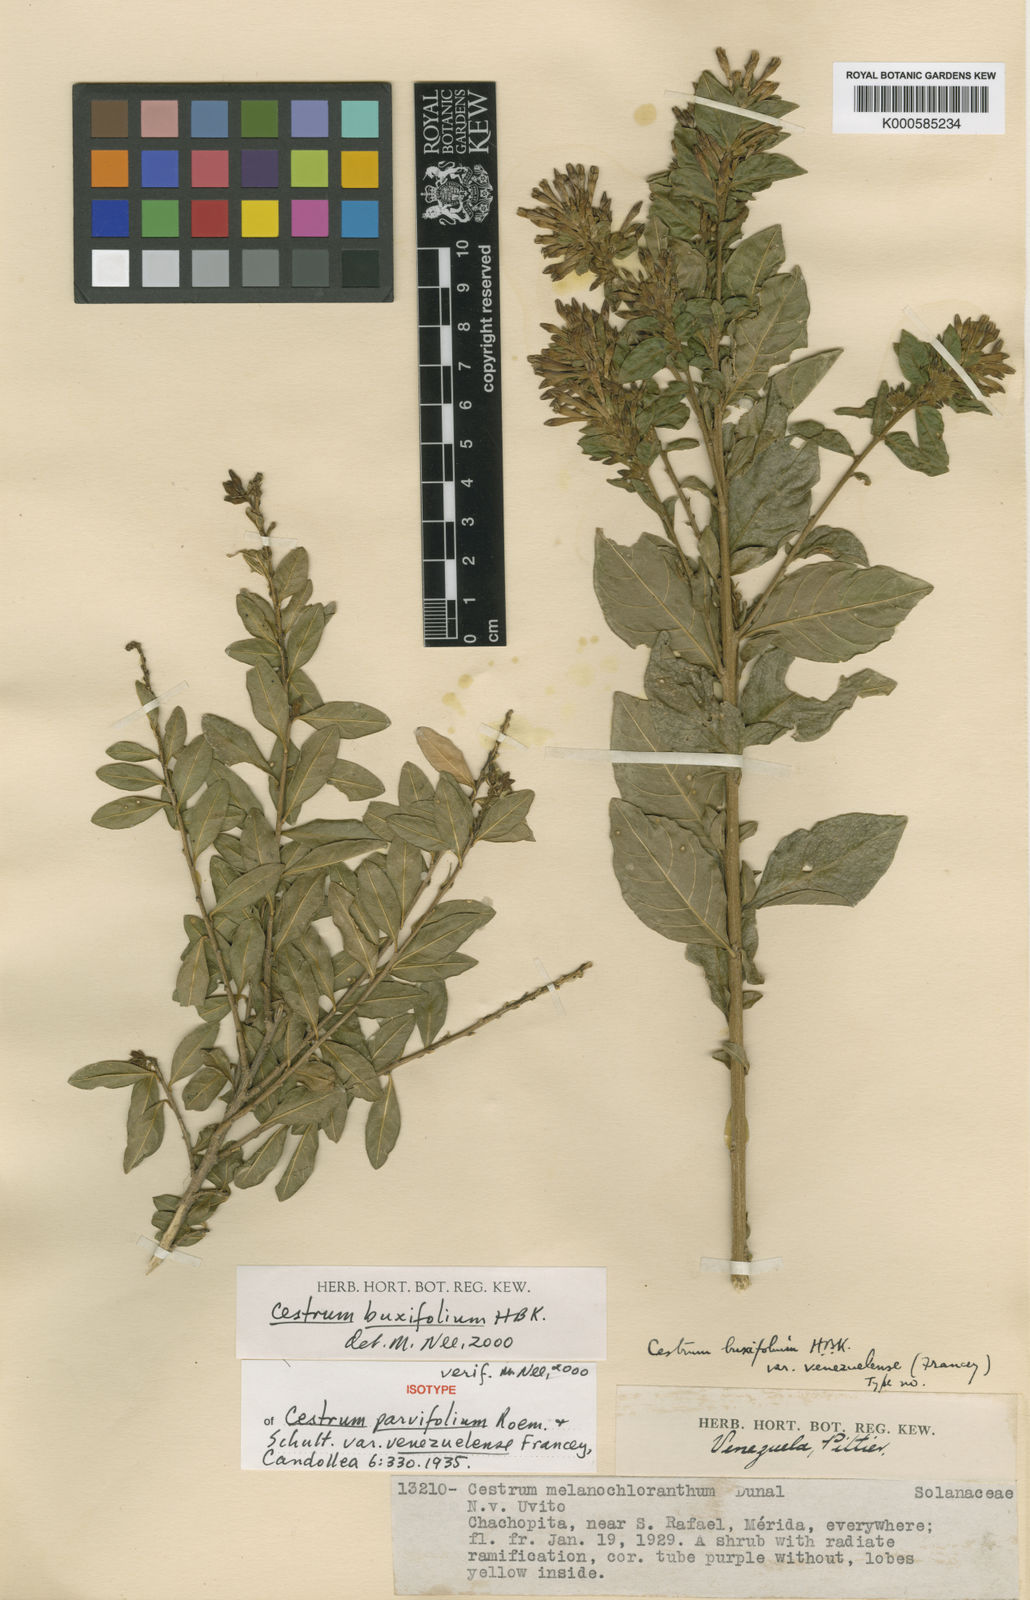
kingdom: Plantae
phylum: Tracheophyta
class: Magnoliopsida
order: Solanales
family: Solanaceae
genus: Cestrum
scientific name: Cestrum buxifolium
